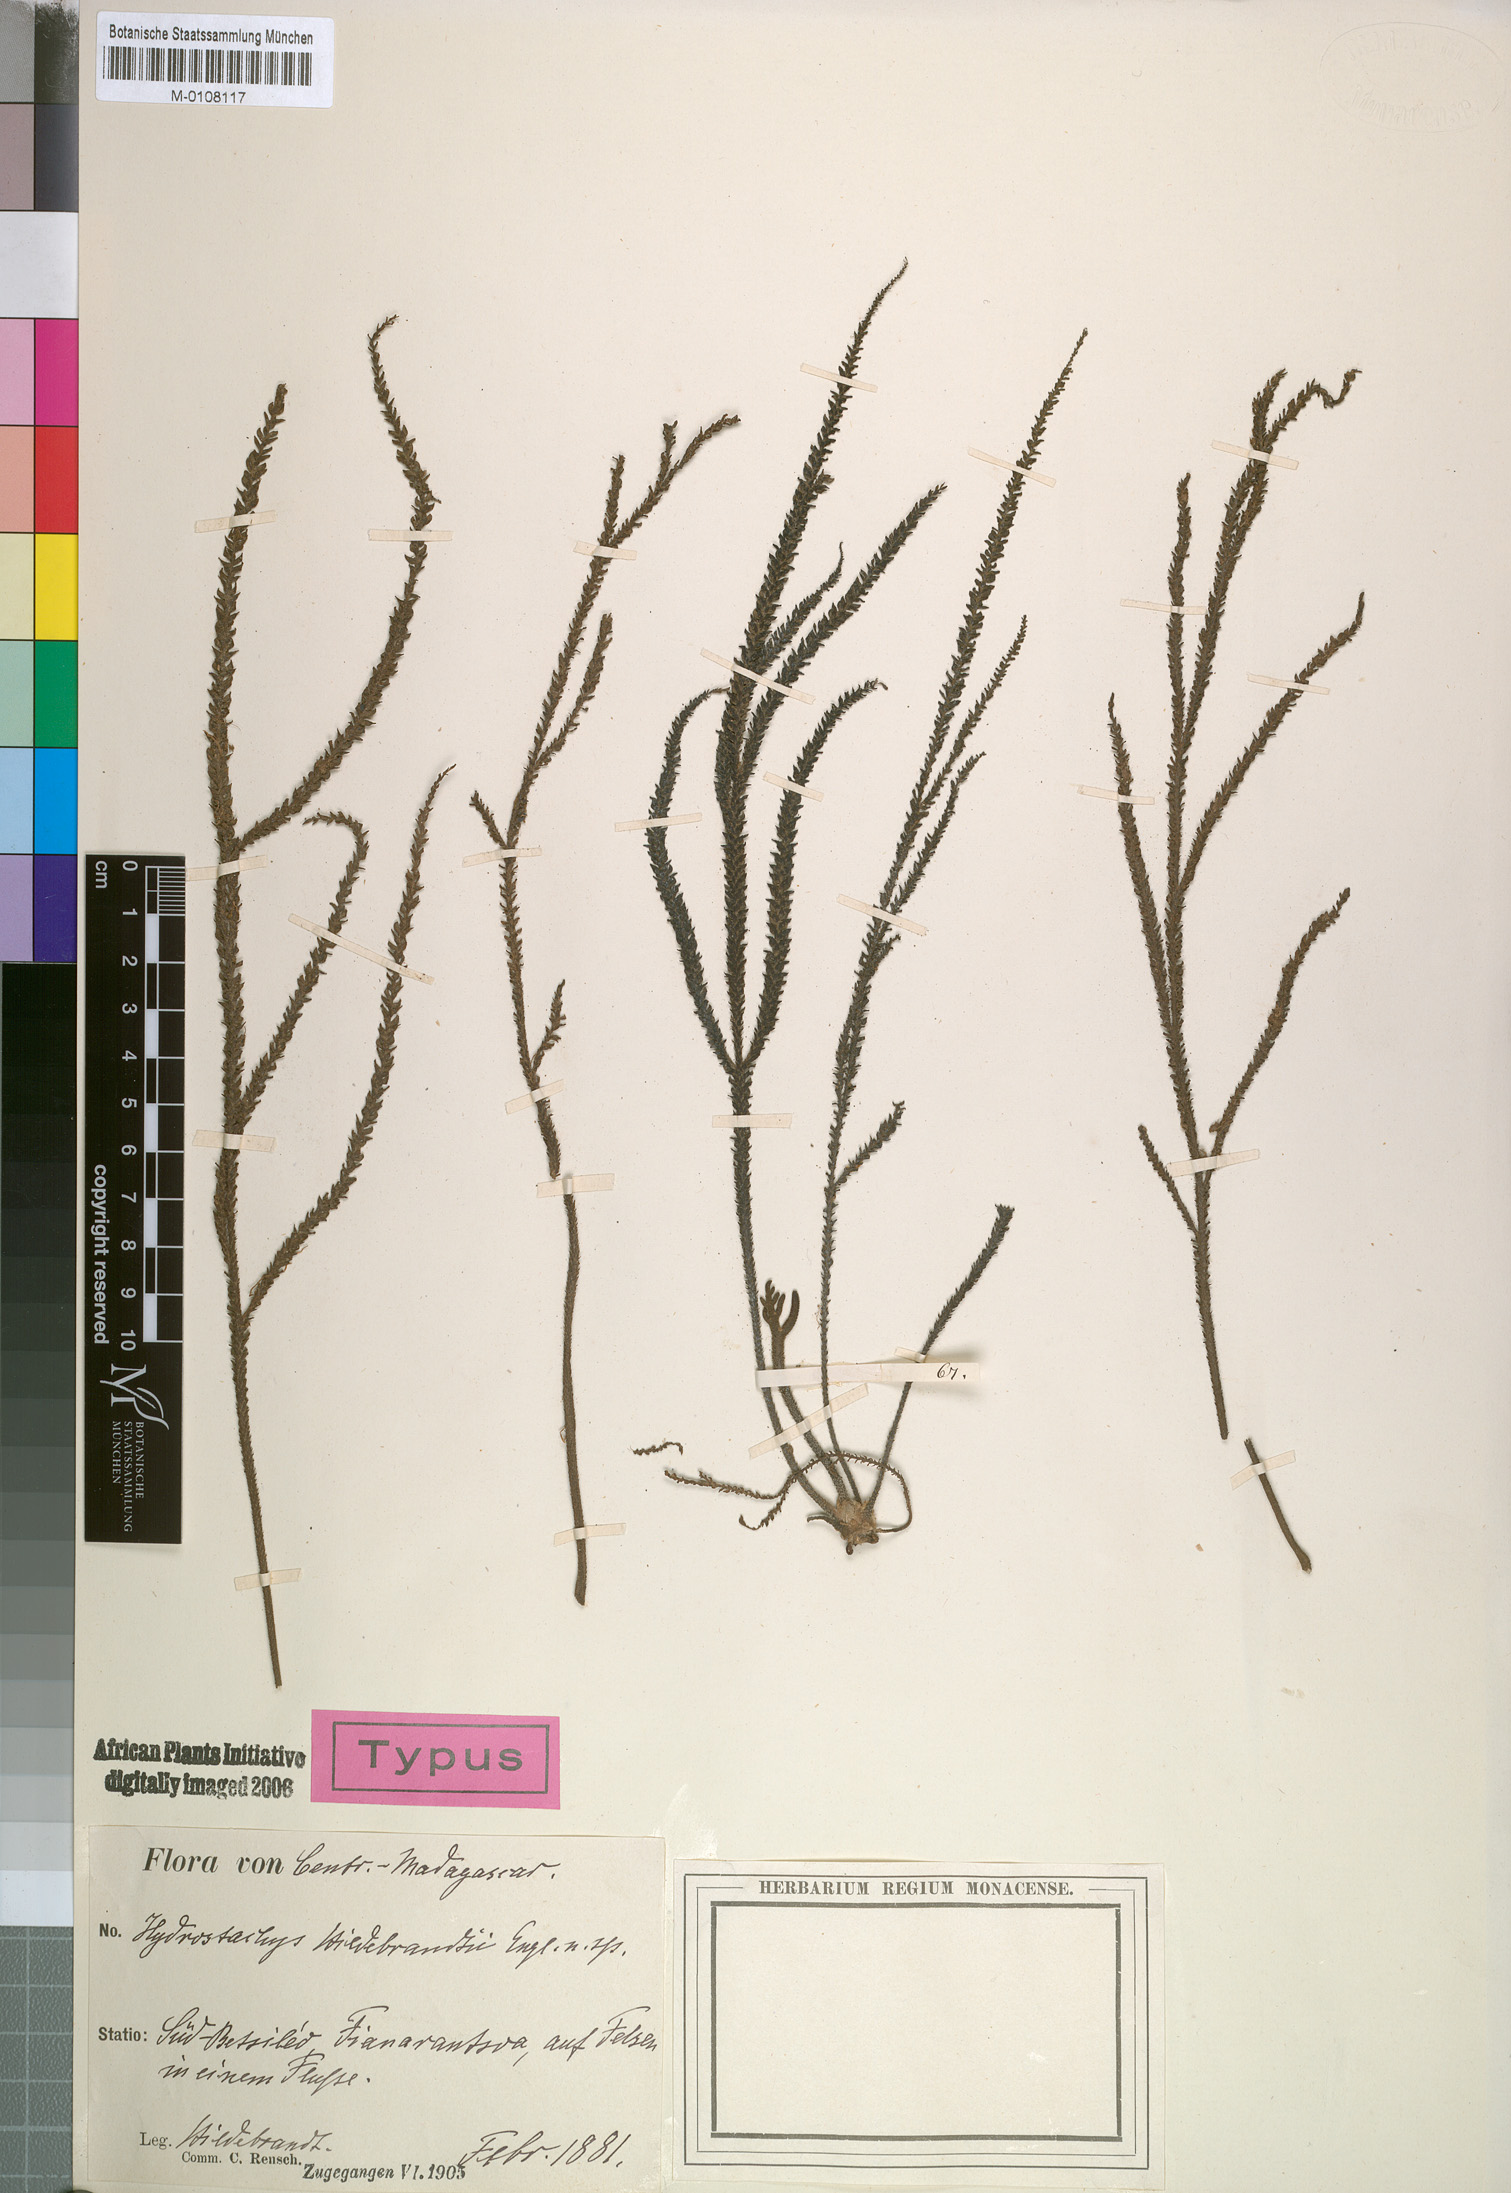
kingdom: Plantae
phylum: Tracheophyta
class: Magnoliopsida
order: Cornales
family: Hydrostachyaceae
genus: Hydrostachys
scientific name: Hydrostachys distichophylla
